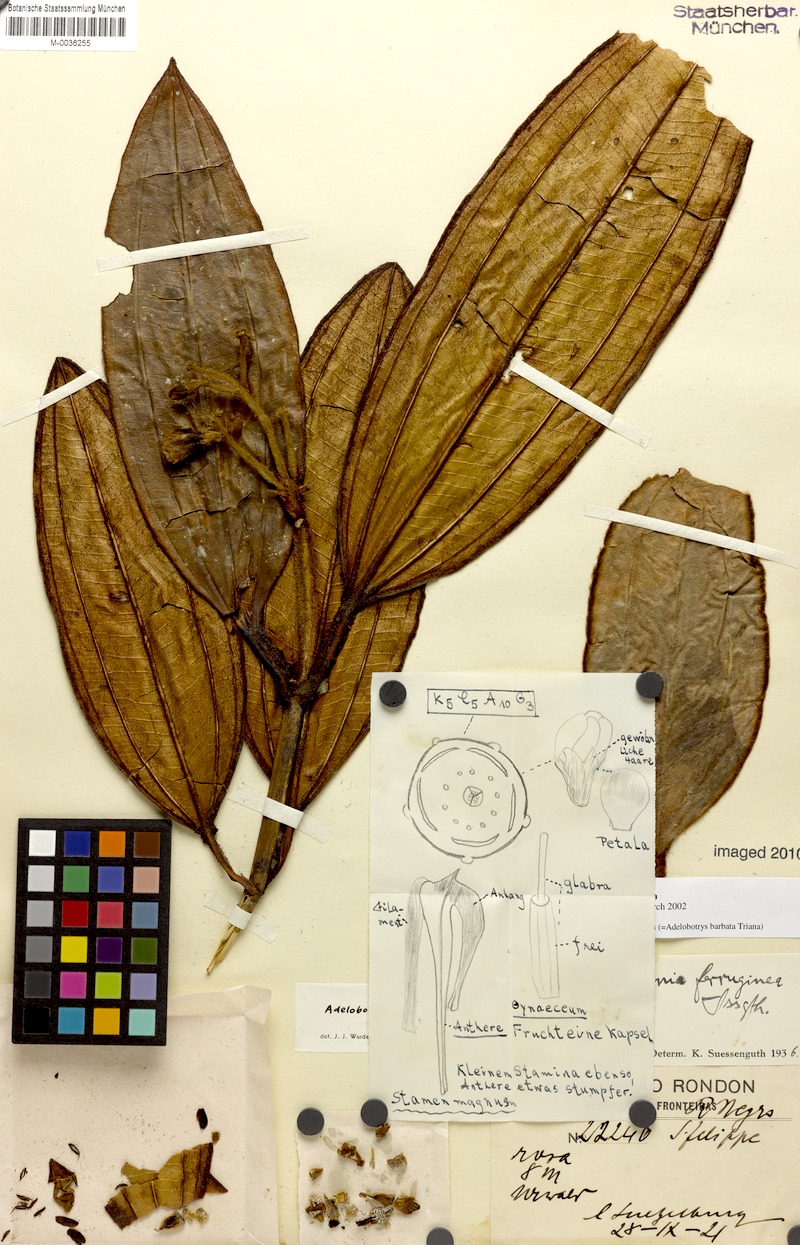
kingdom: Plantae
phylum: Tracheophyta
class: Magnoliopsida
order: Myrtales
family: Melastomataceae
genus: Adelobotrys
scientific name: Adelobotrys barbatus
